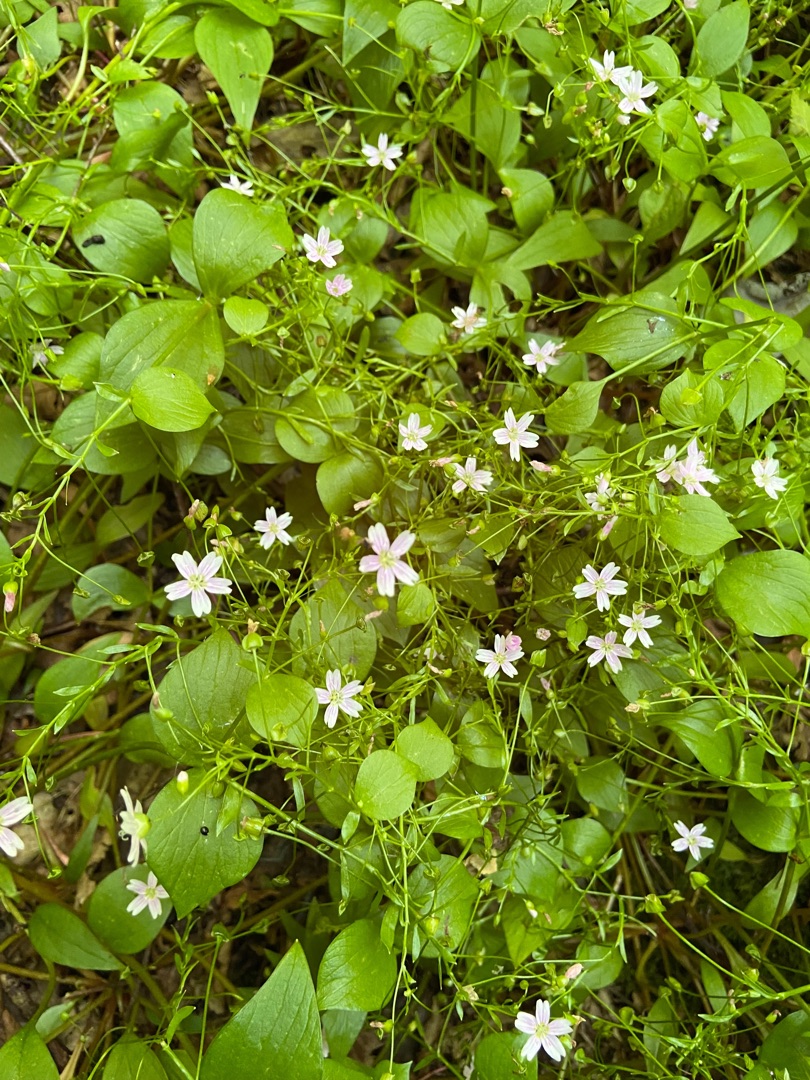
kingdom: Plantae
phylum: Tracheophyta
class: Magnoliopsida
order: Caryophyllales
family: Montiaceae
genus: Claytonia
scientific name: Claytonia sibirica
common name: Sibirisk vinterportulak
